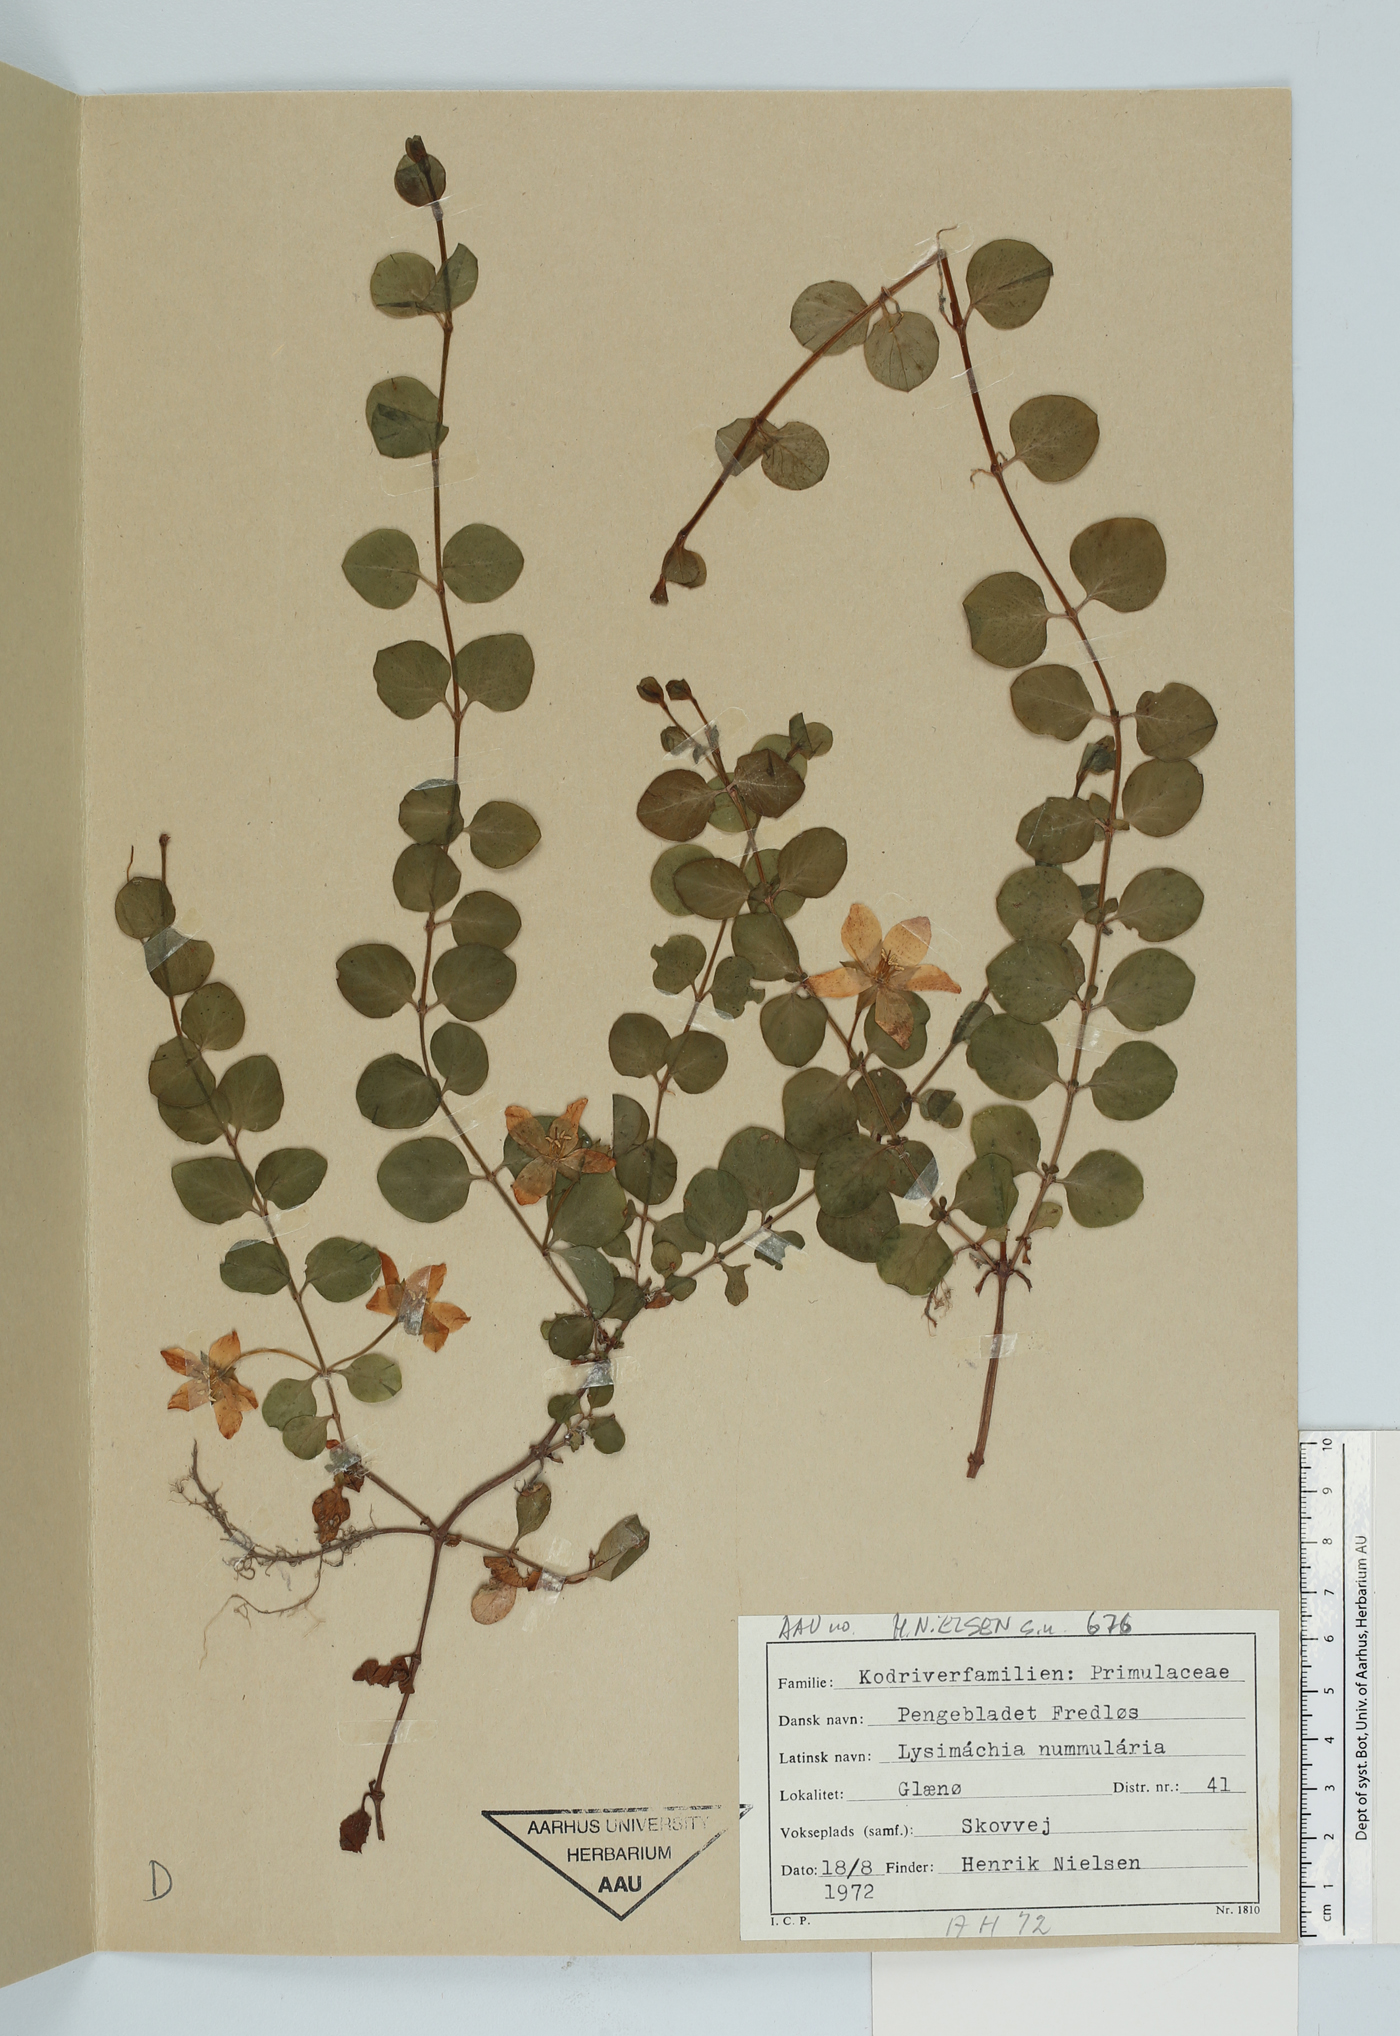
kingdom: Plantae
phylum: Tracheophyta
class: Magnoliopsida
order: Ericales
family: Primulaceae
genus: Lysimachia
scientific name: Lysimachia nummularia
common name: Moneywort
